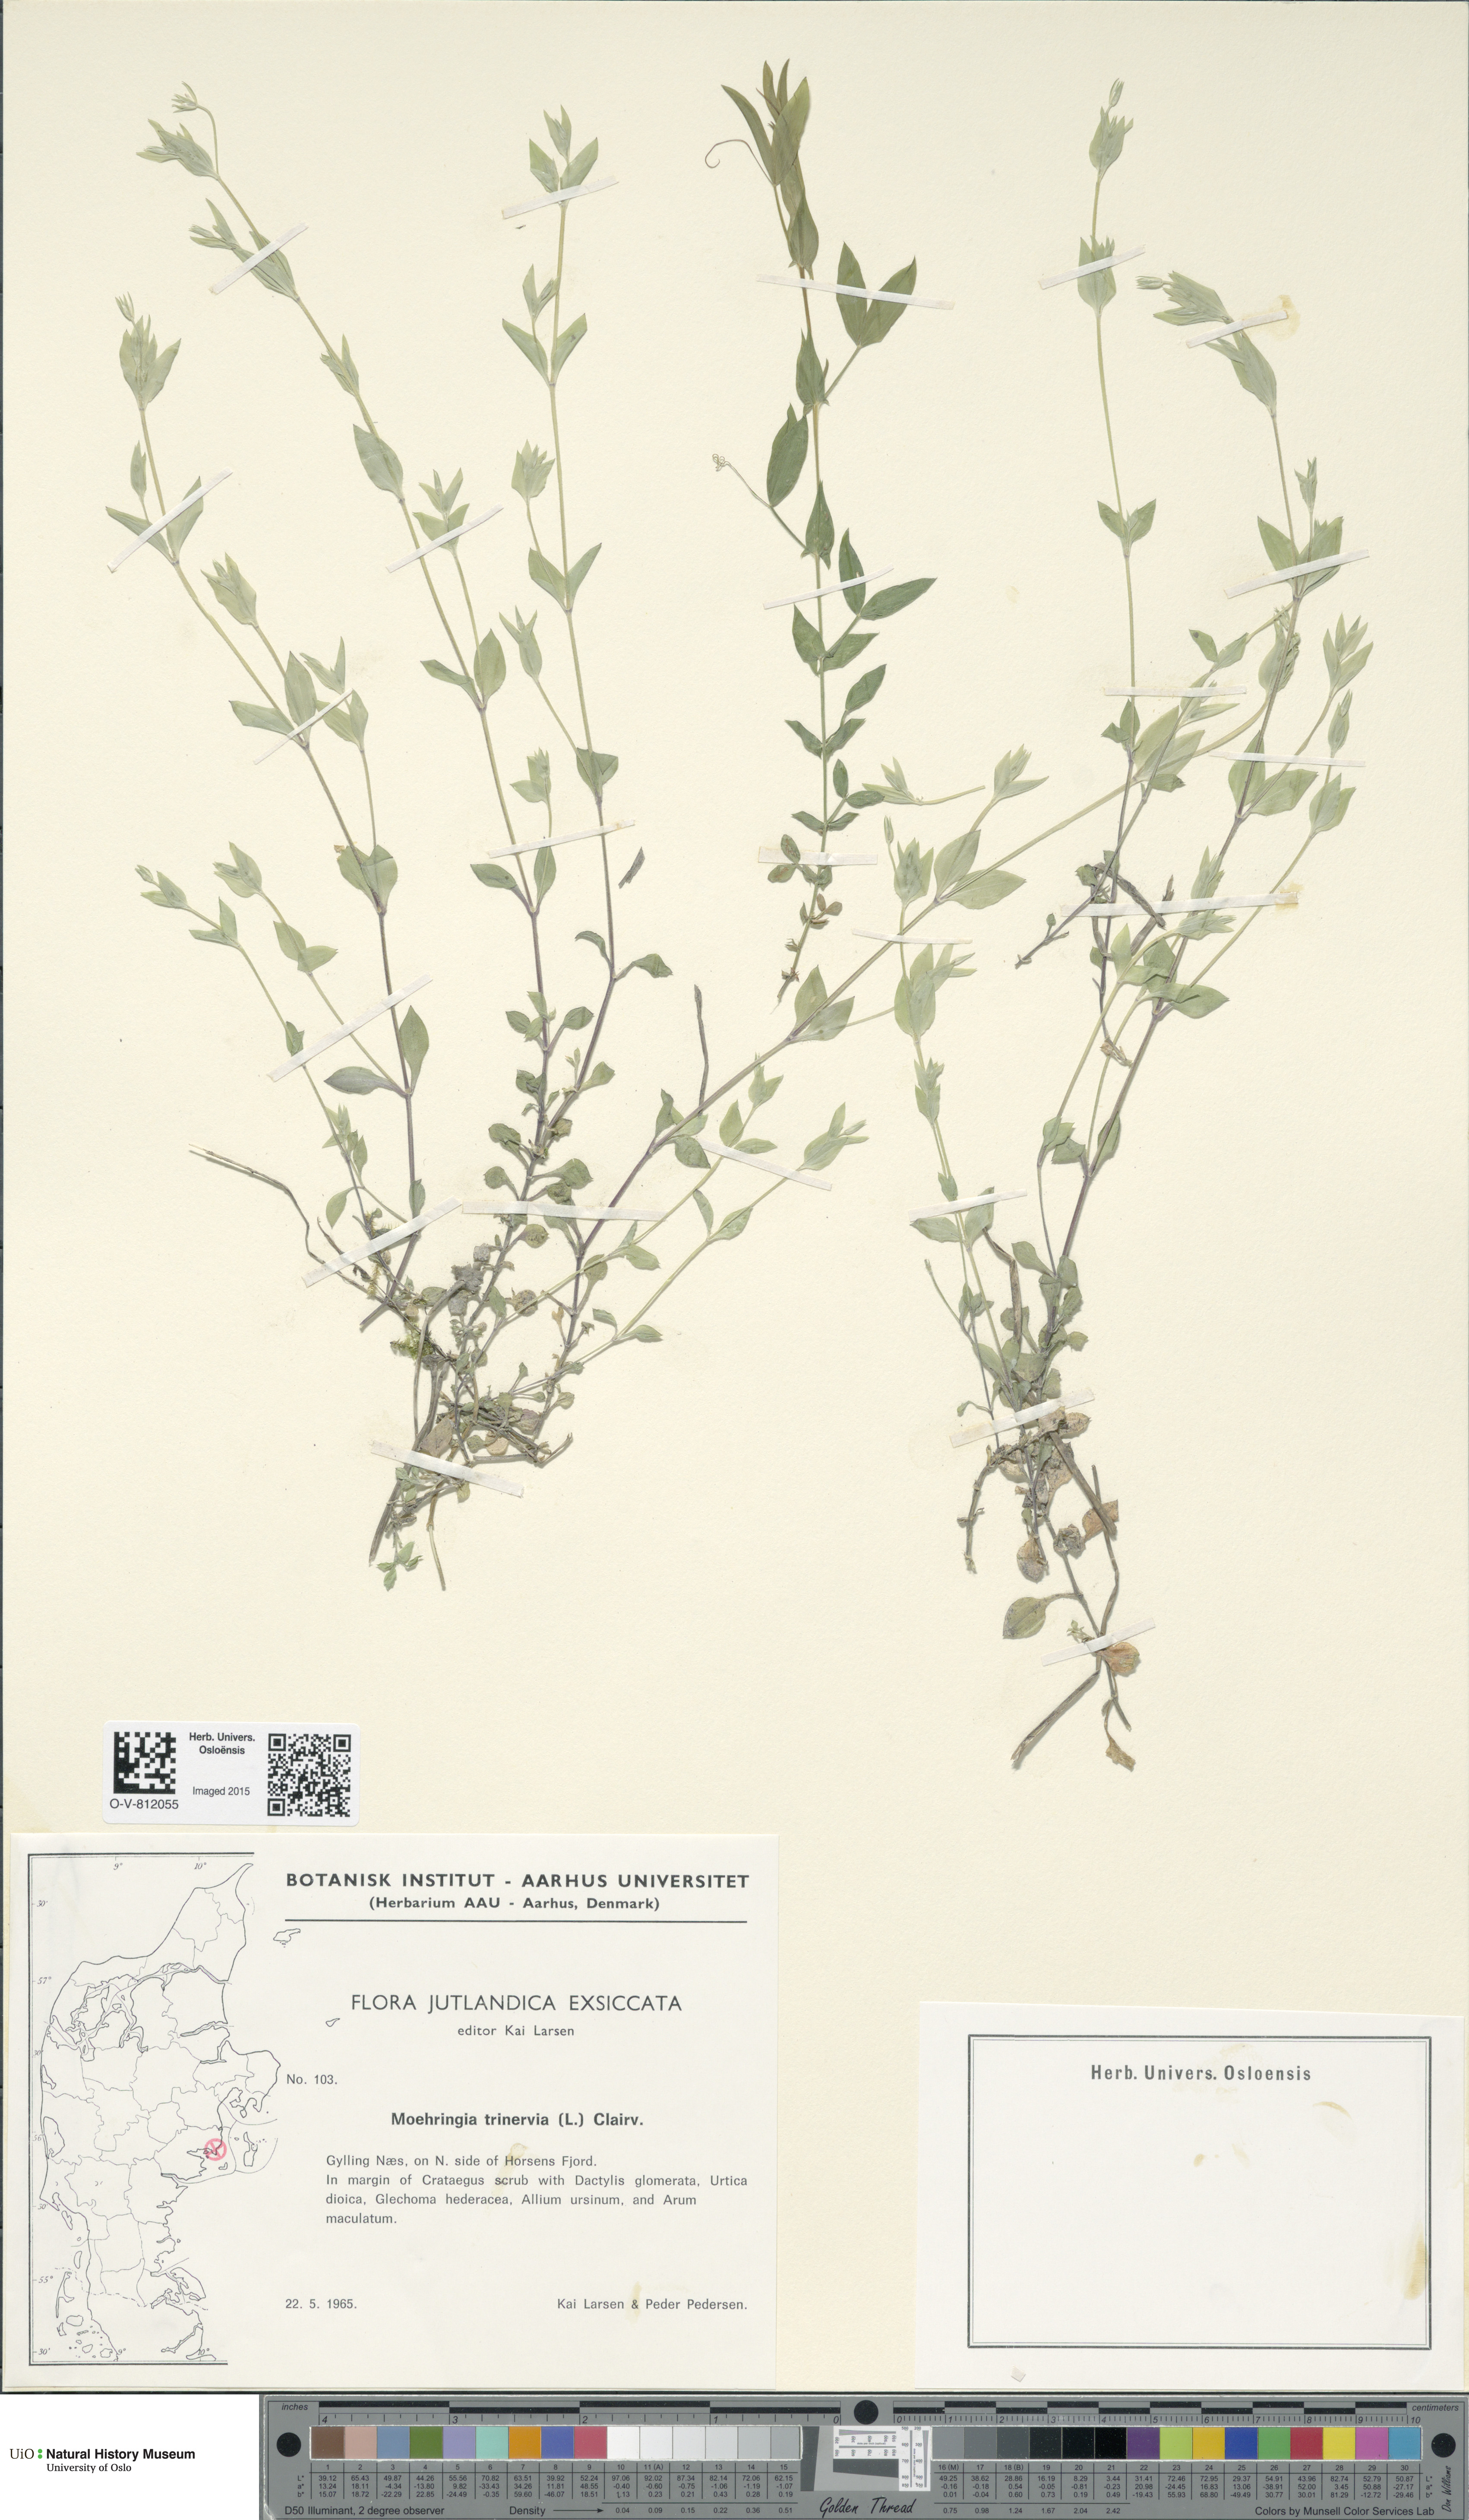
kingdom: Plantae
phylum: Tracheophyta
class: Magnoliopsida
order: Caryophyllales
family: Caryophyllaceae
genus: Moehringia
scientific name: Moehringia trinervia
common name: Three-nerved sandwort
